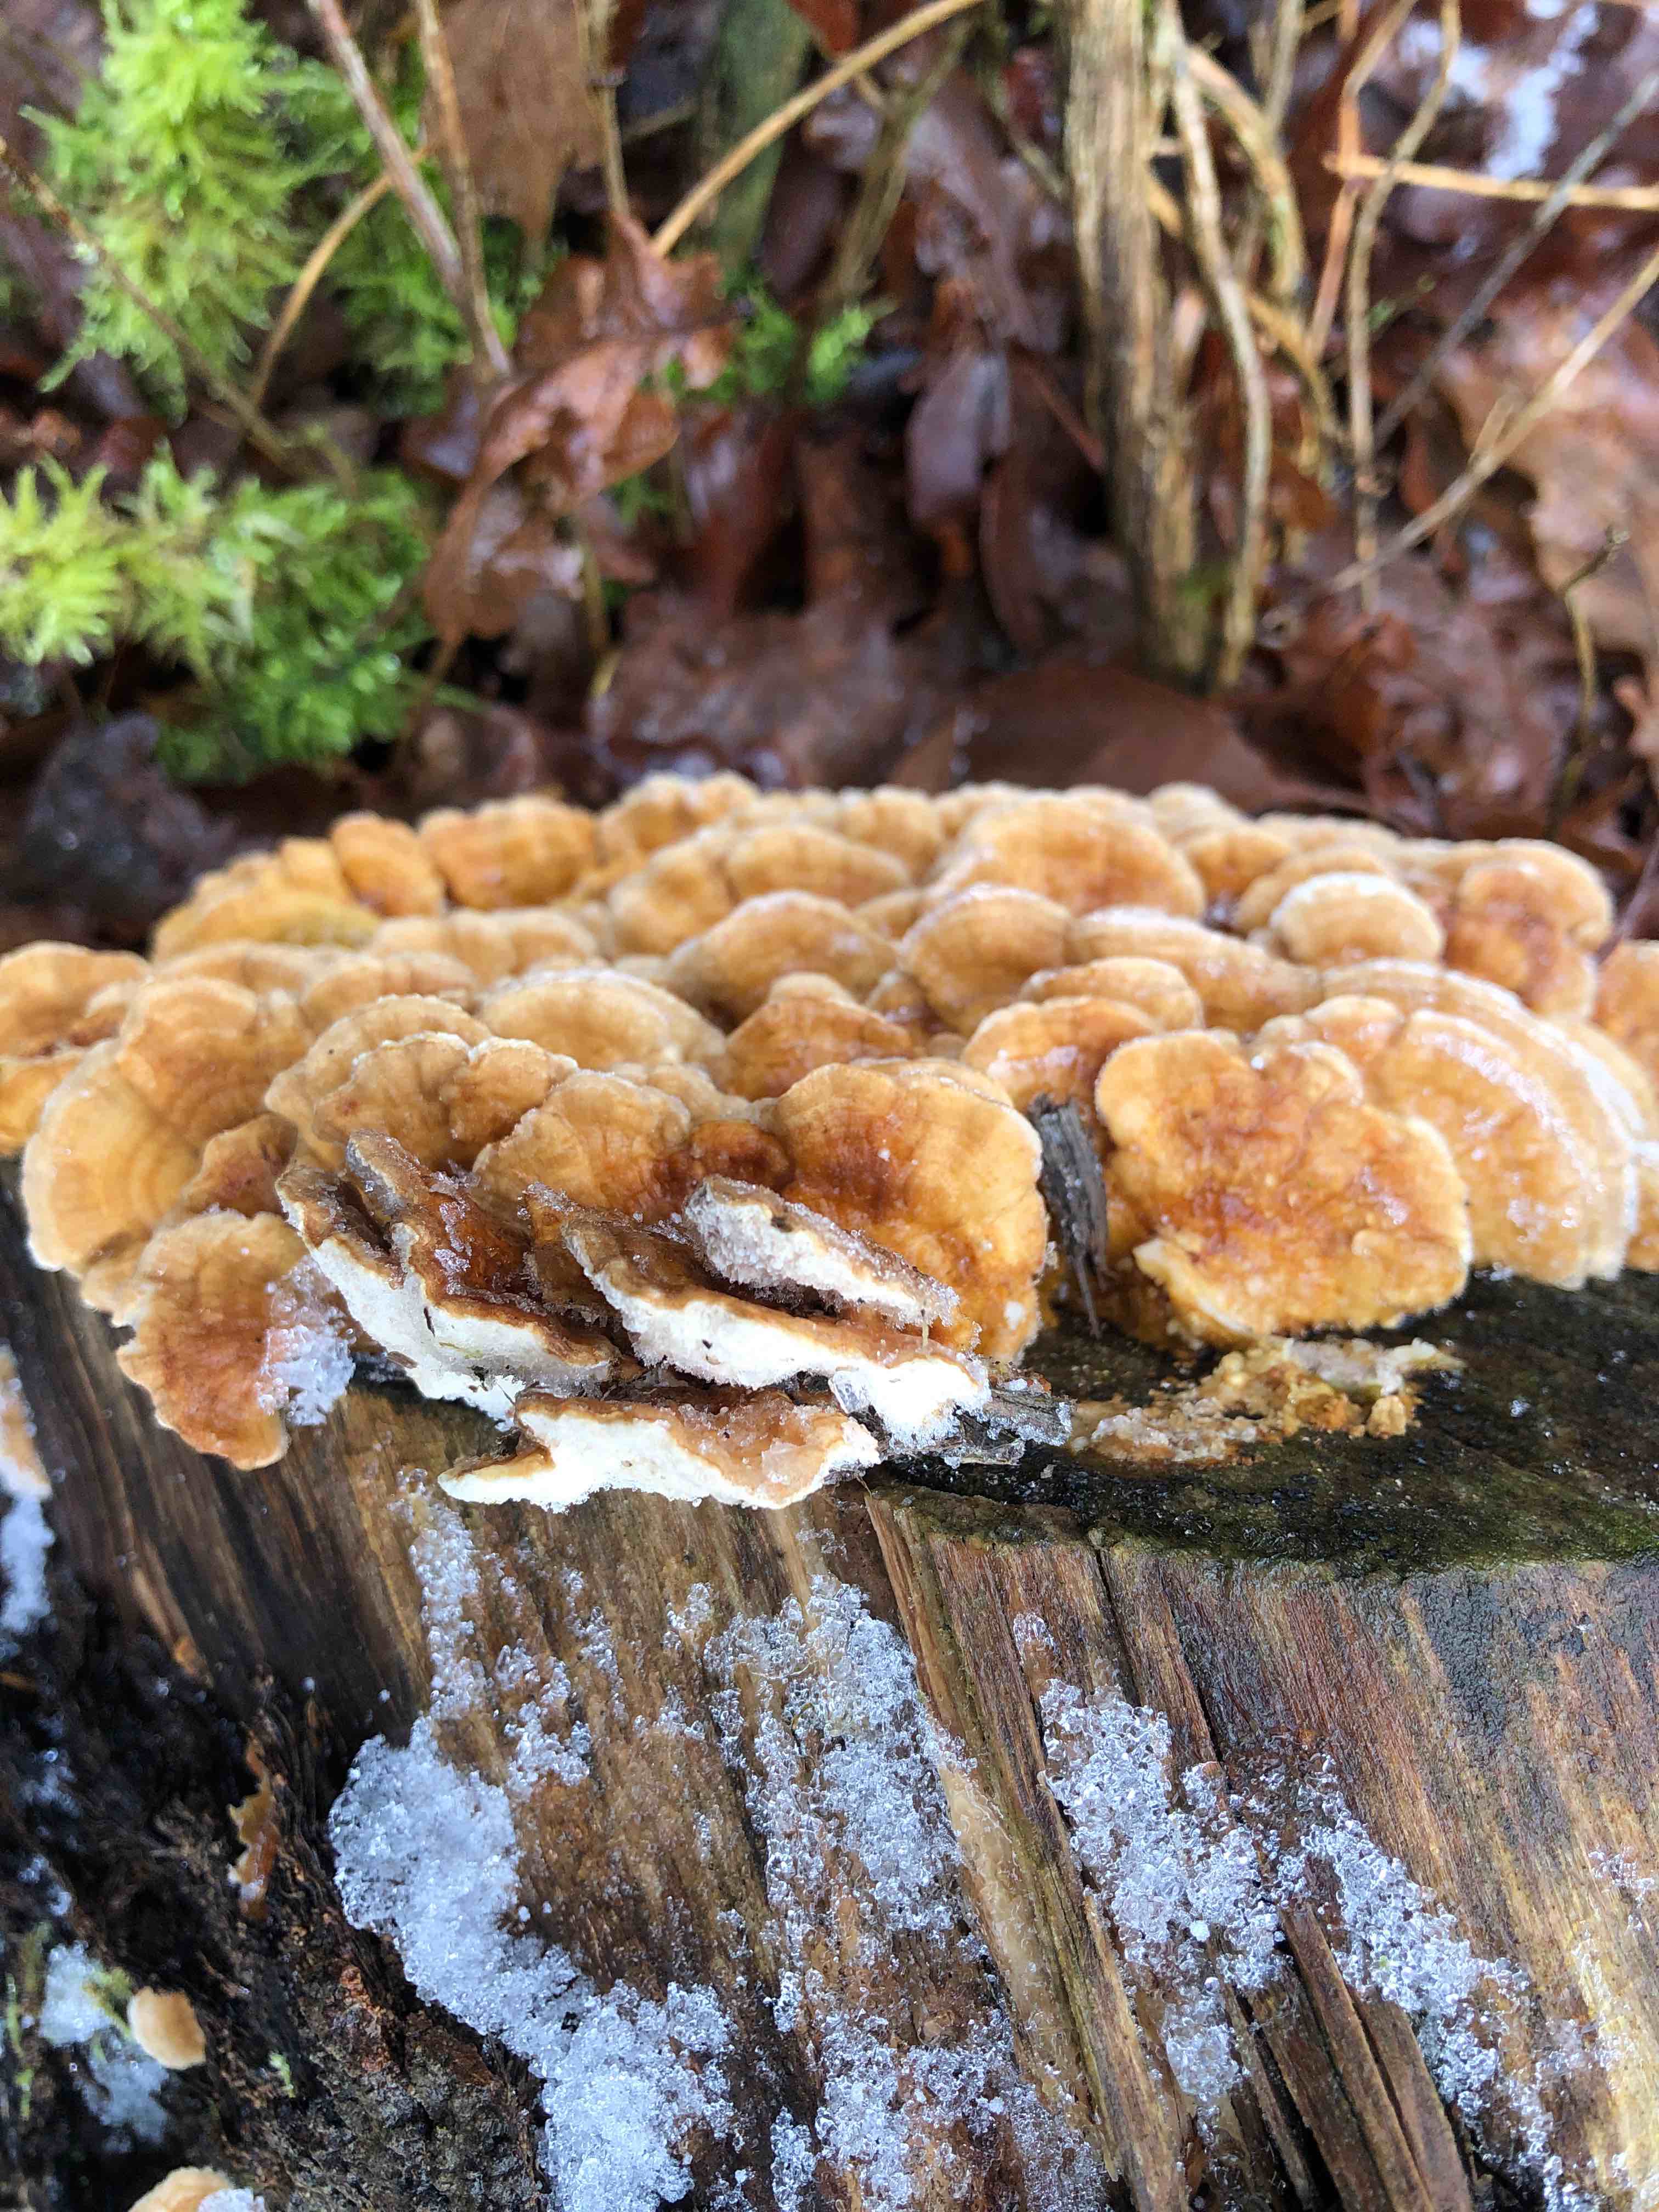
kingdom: Fungi
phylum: Basidiomycota
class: Agaricomycetes
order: Polyporales
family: Polyporaceae
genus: Trametes
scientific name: Trametes ochracea
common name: bæltet læderporesvamp
